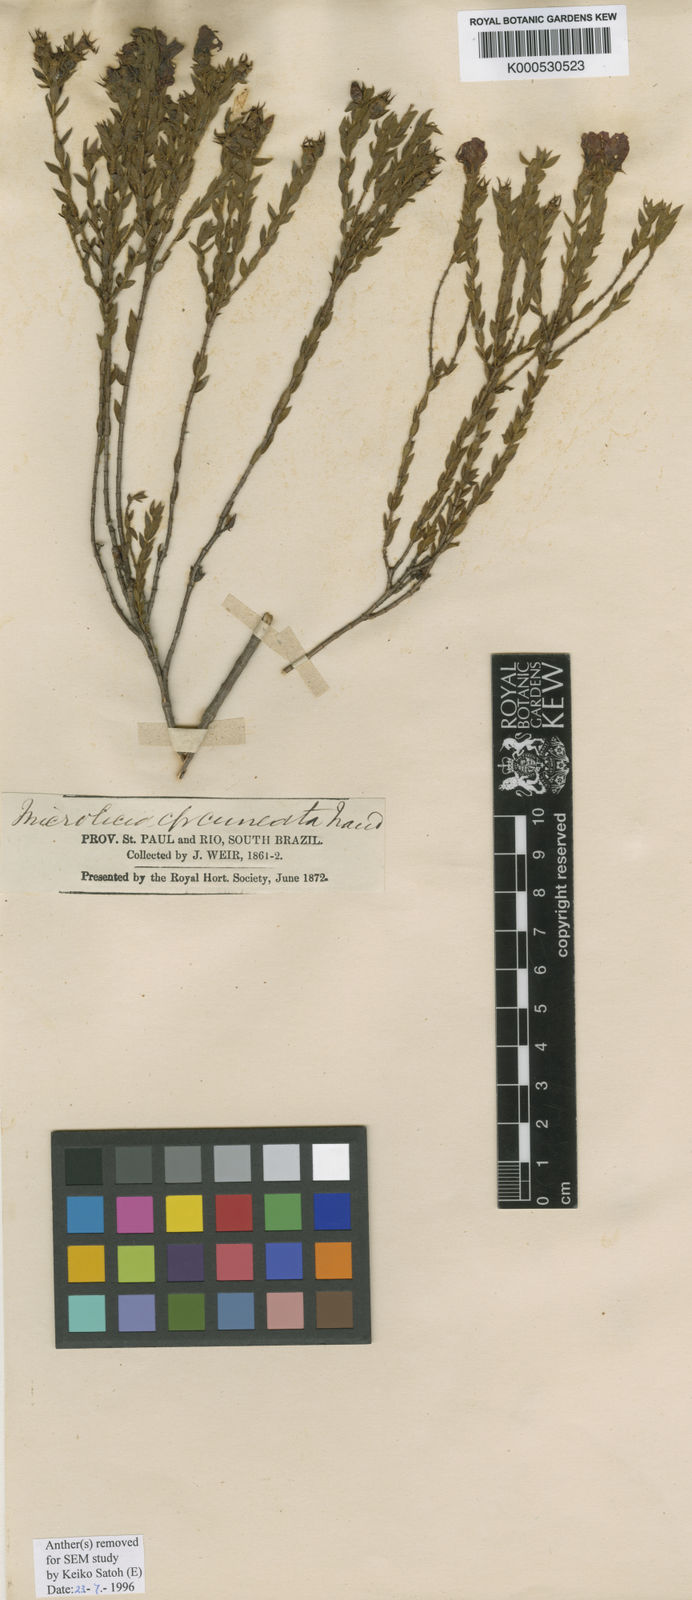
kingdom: Plantae
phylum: Tracheophyta
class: Magnoliopsida
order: Myrtales
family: Melastomataceae
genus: Microlicia
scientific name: Microlicia cuneata
